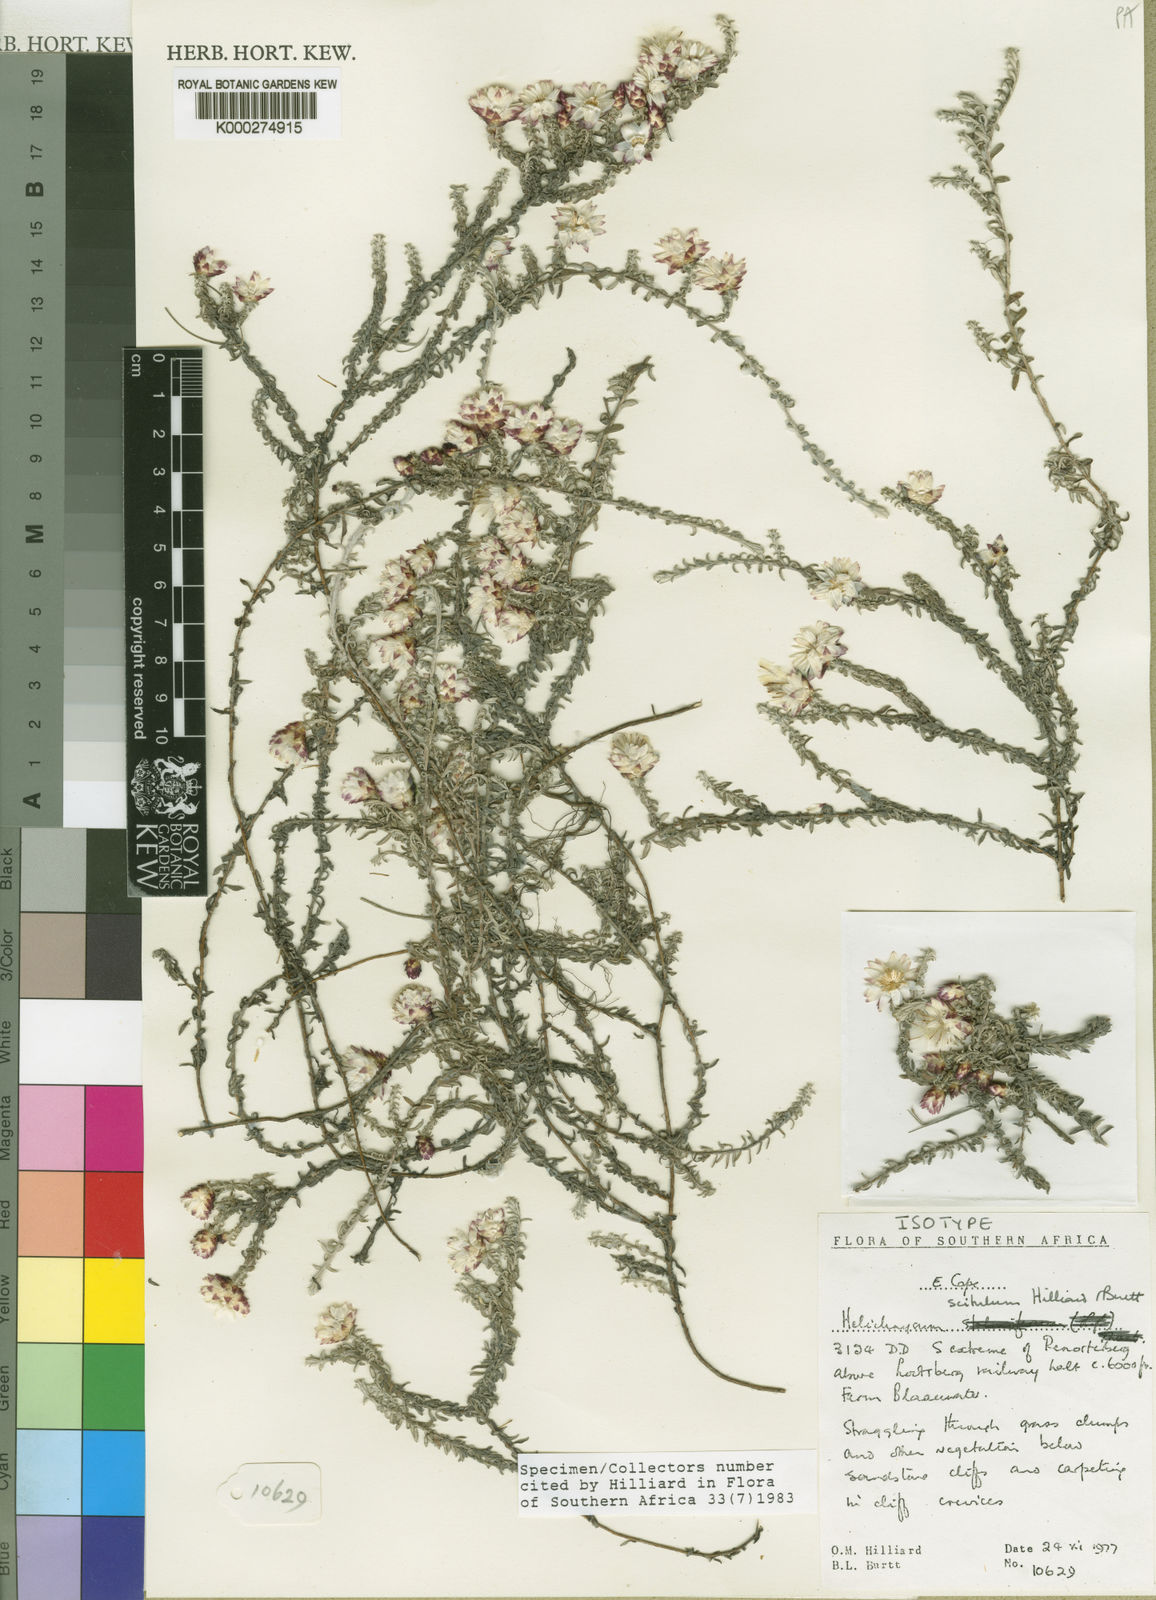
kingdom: Plantae
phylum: Tracheophyta
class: Magnoliopsida
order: Asterales
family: Asteraceae
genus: Helichrysum
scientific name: Helichrysum scitulum
